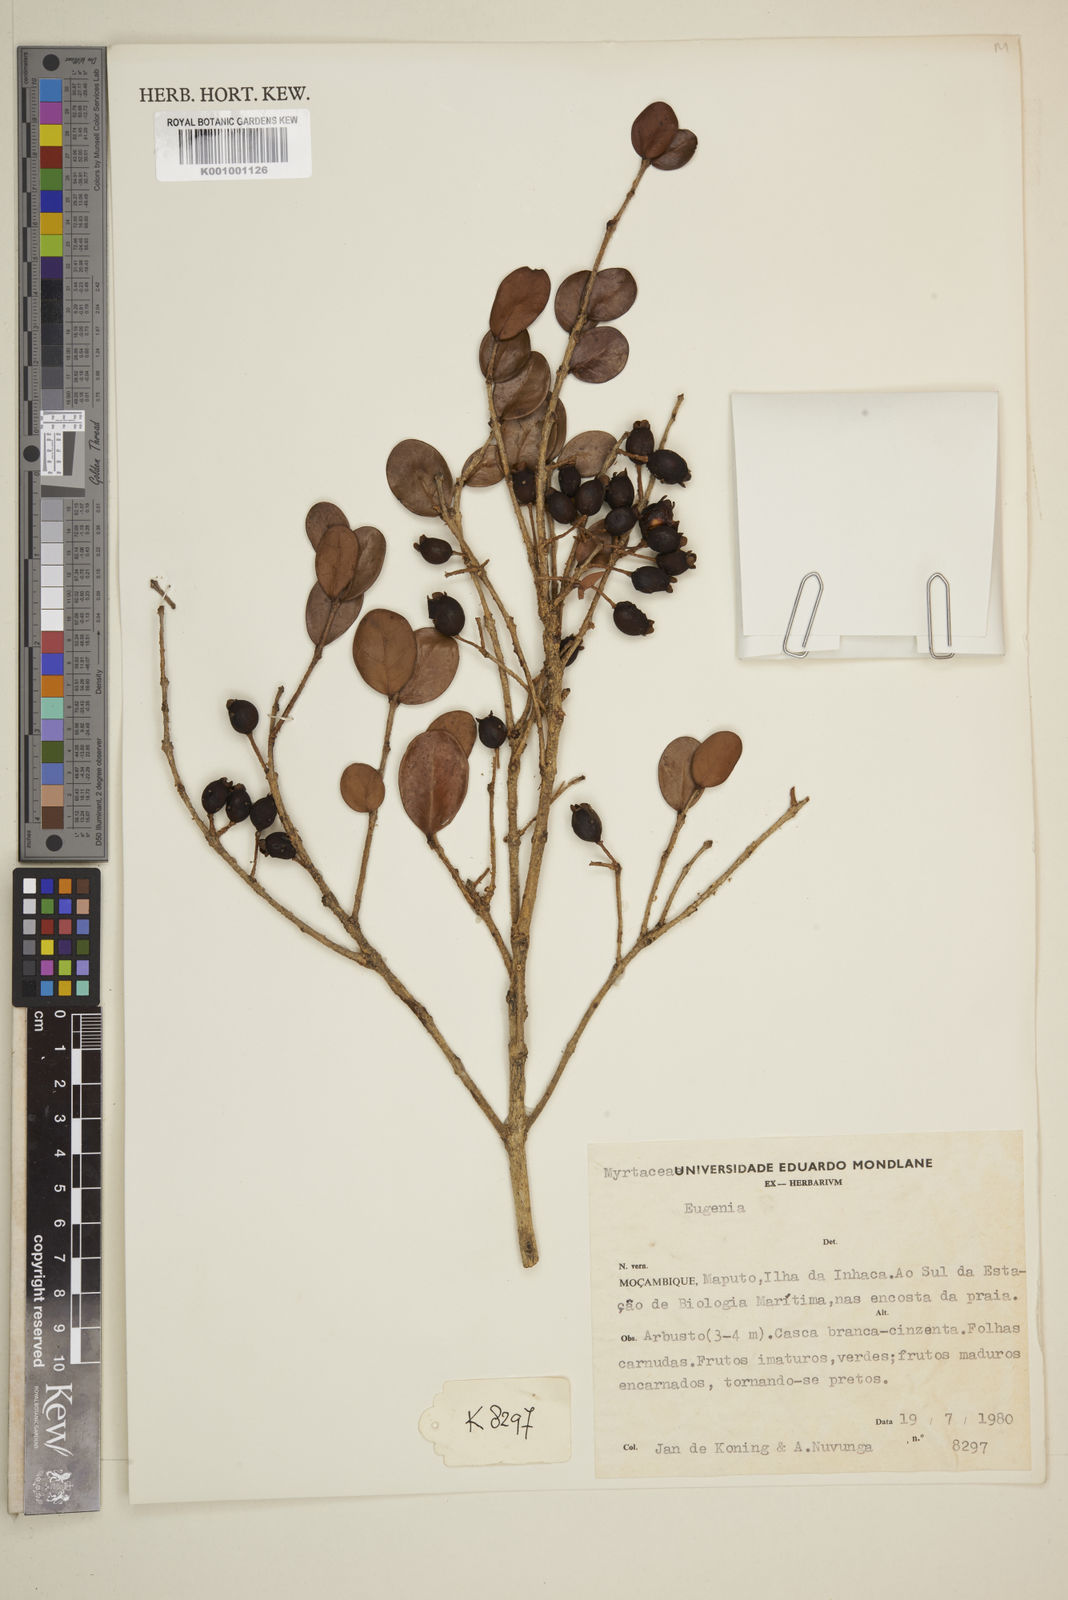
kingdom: Plantae
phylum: Tracheophyta
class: Magnoliopsida
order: Myrtales
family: Myrtaceae
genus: Eugenia
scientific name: Eugenia capensis
